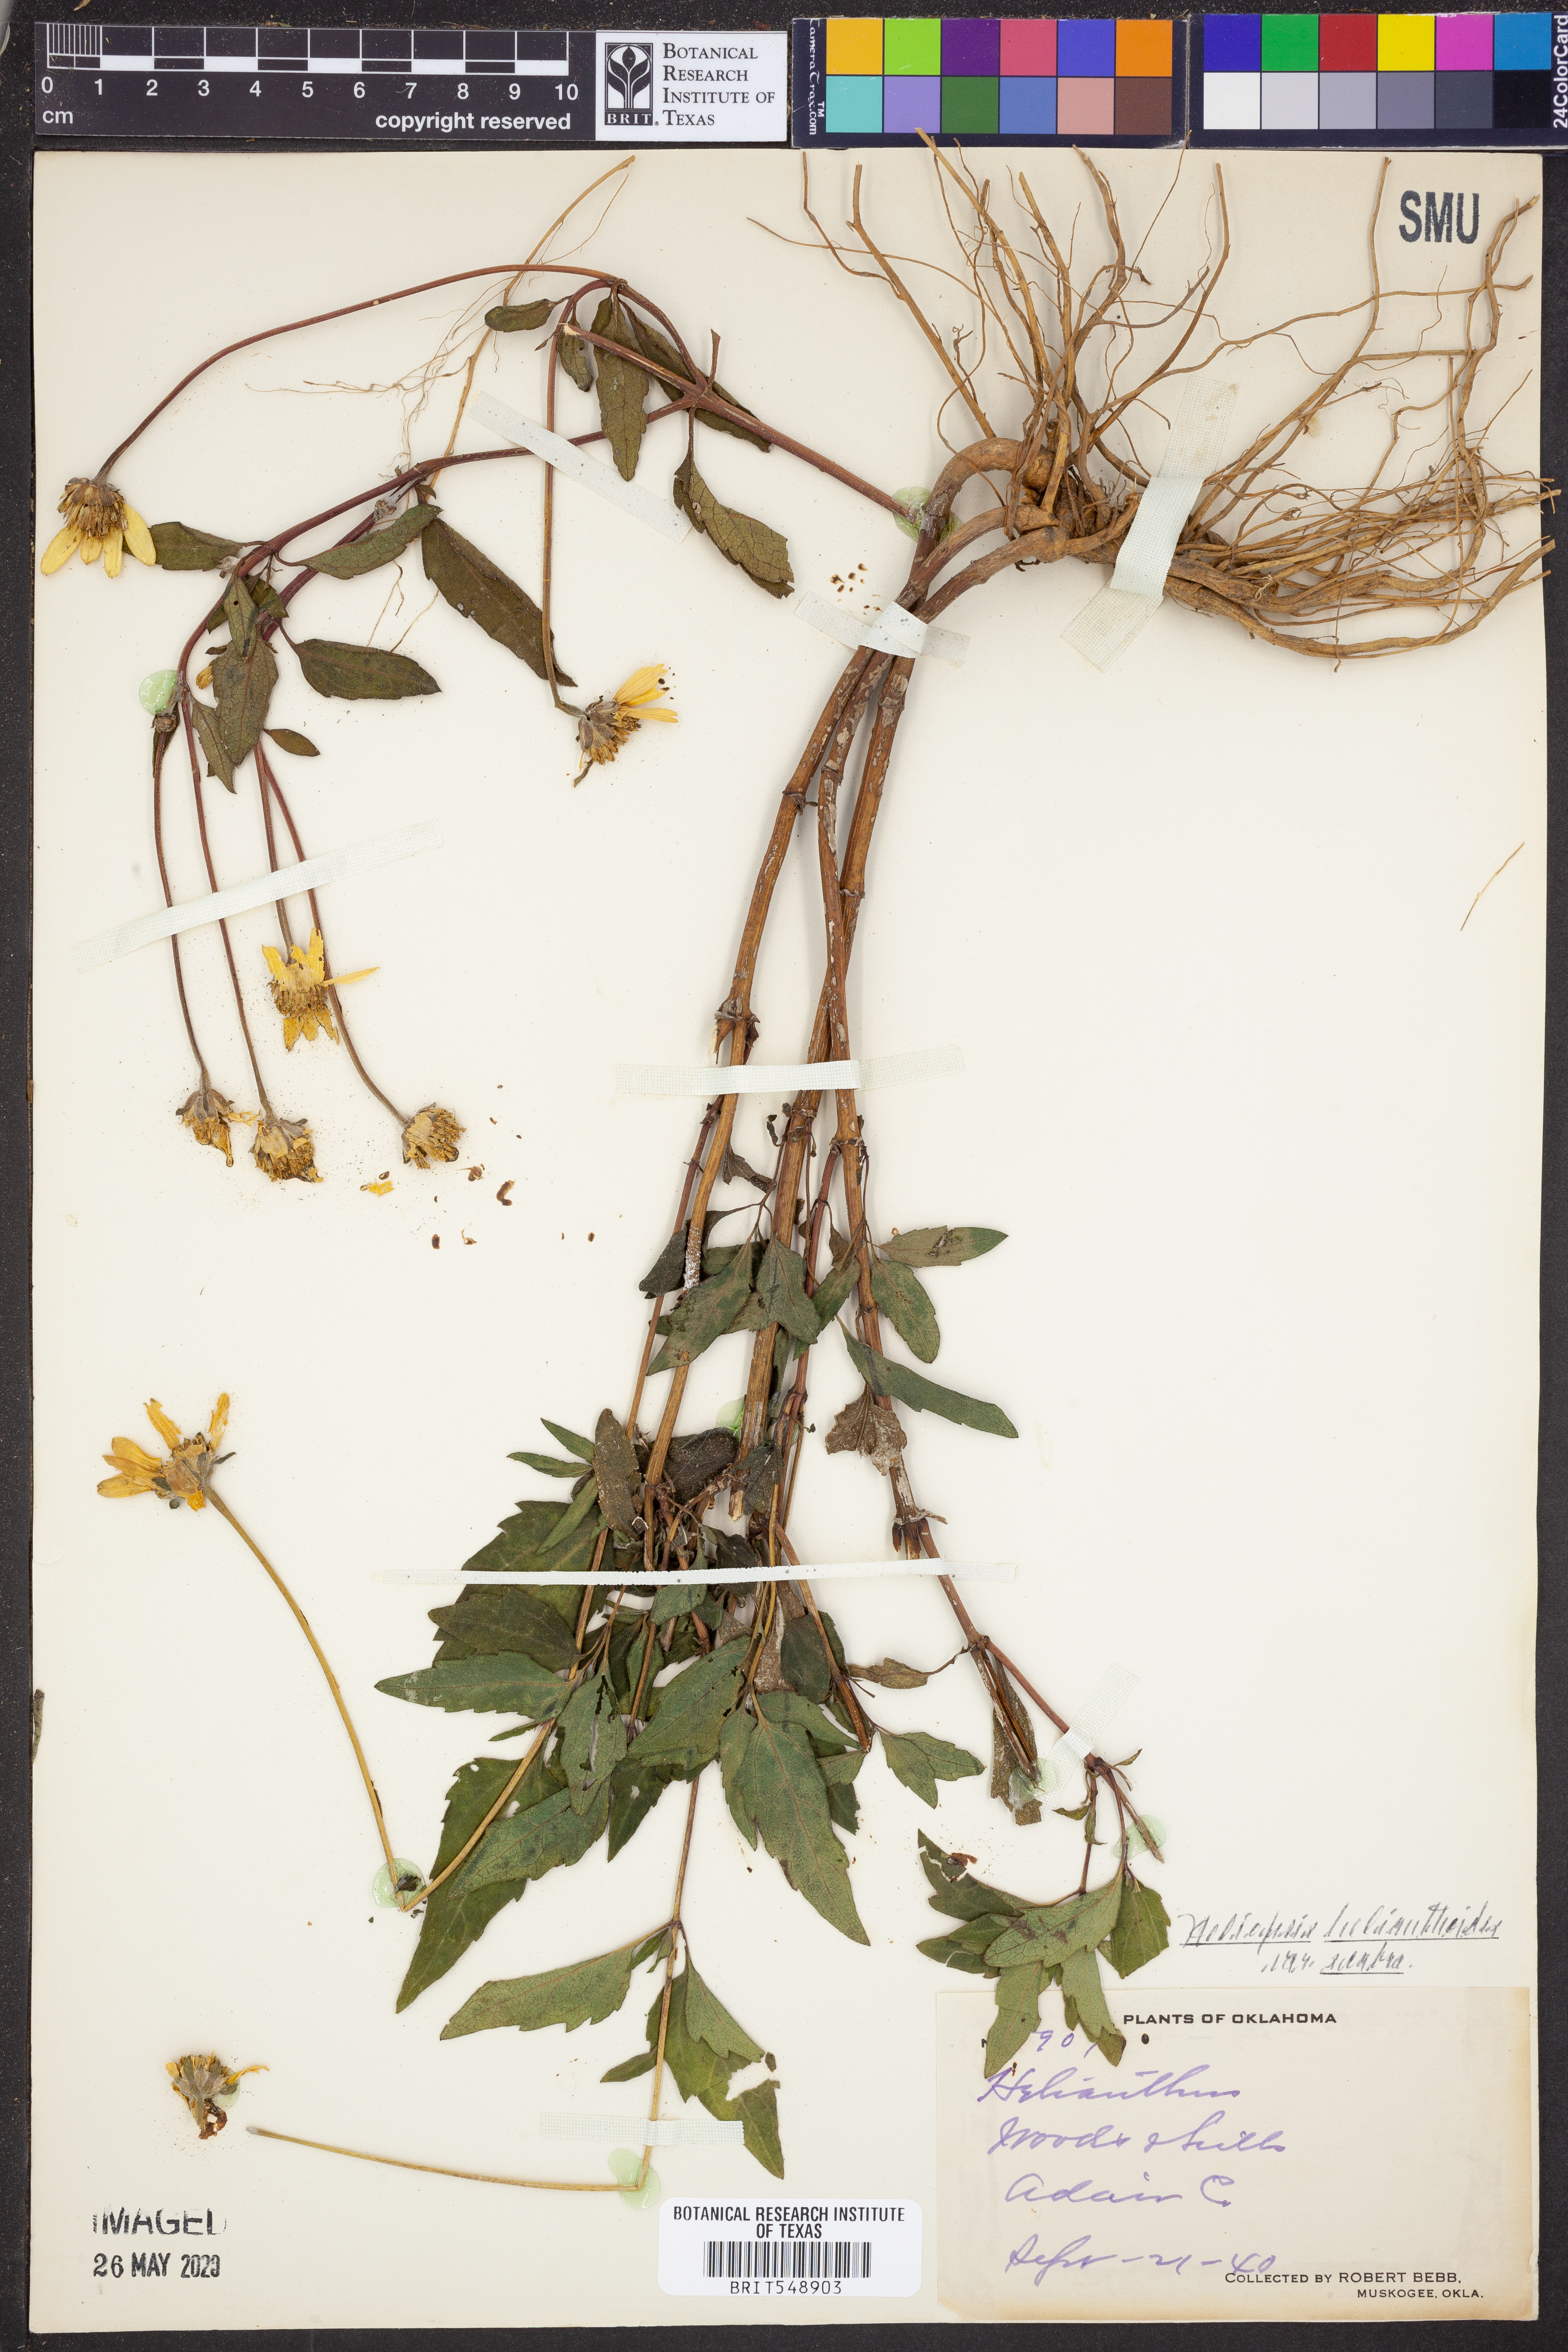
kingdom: Plantae
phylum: Tracheophyta
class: Magnoliopsida
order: Asterales
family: Asteraceae
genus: Heliopsis
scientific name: Heliopsis helianthoides
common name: False sunflower
